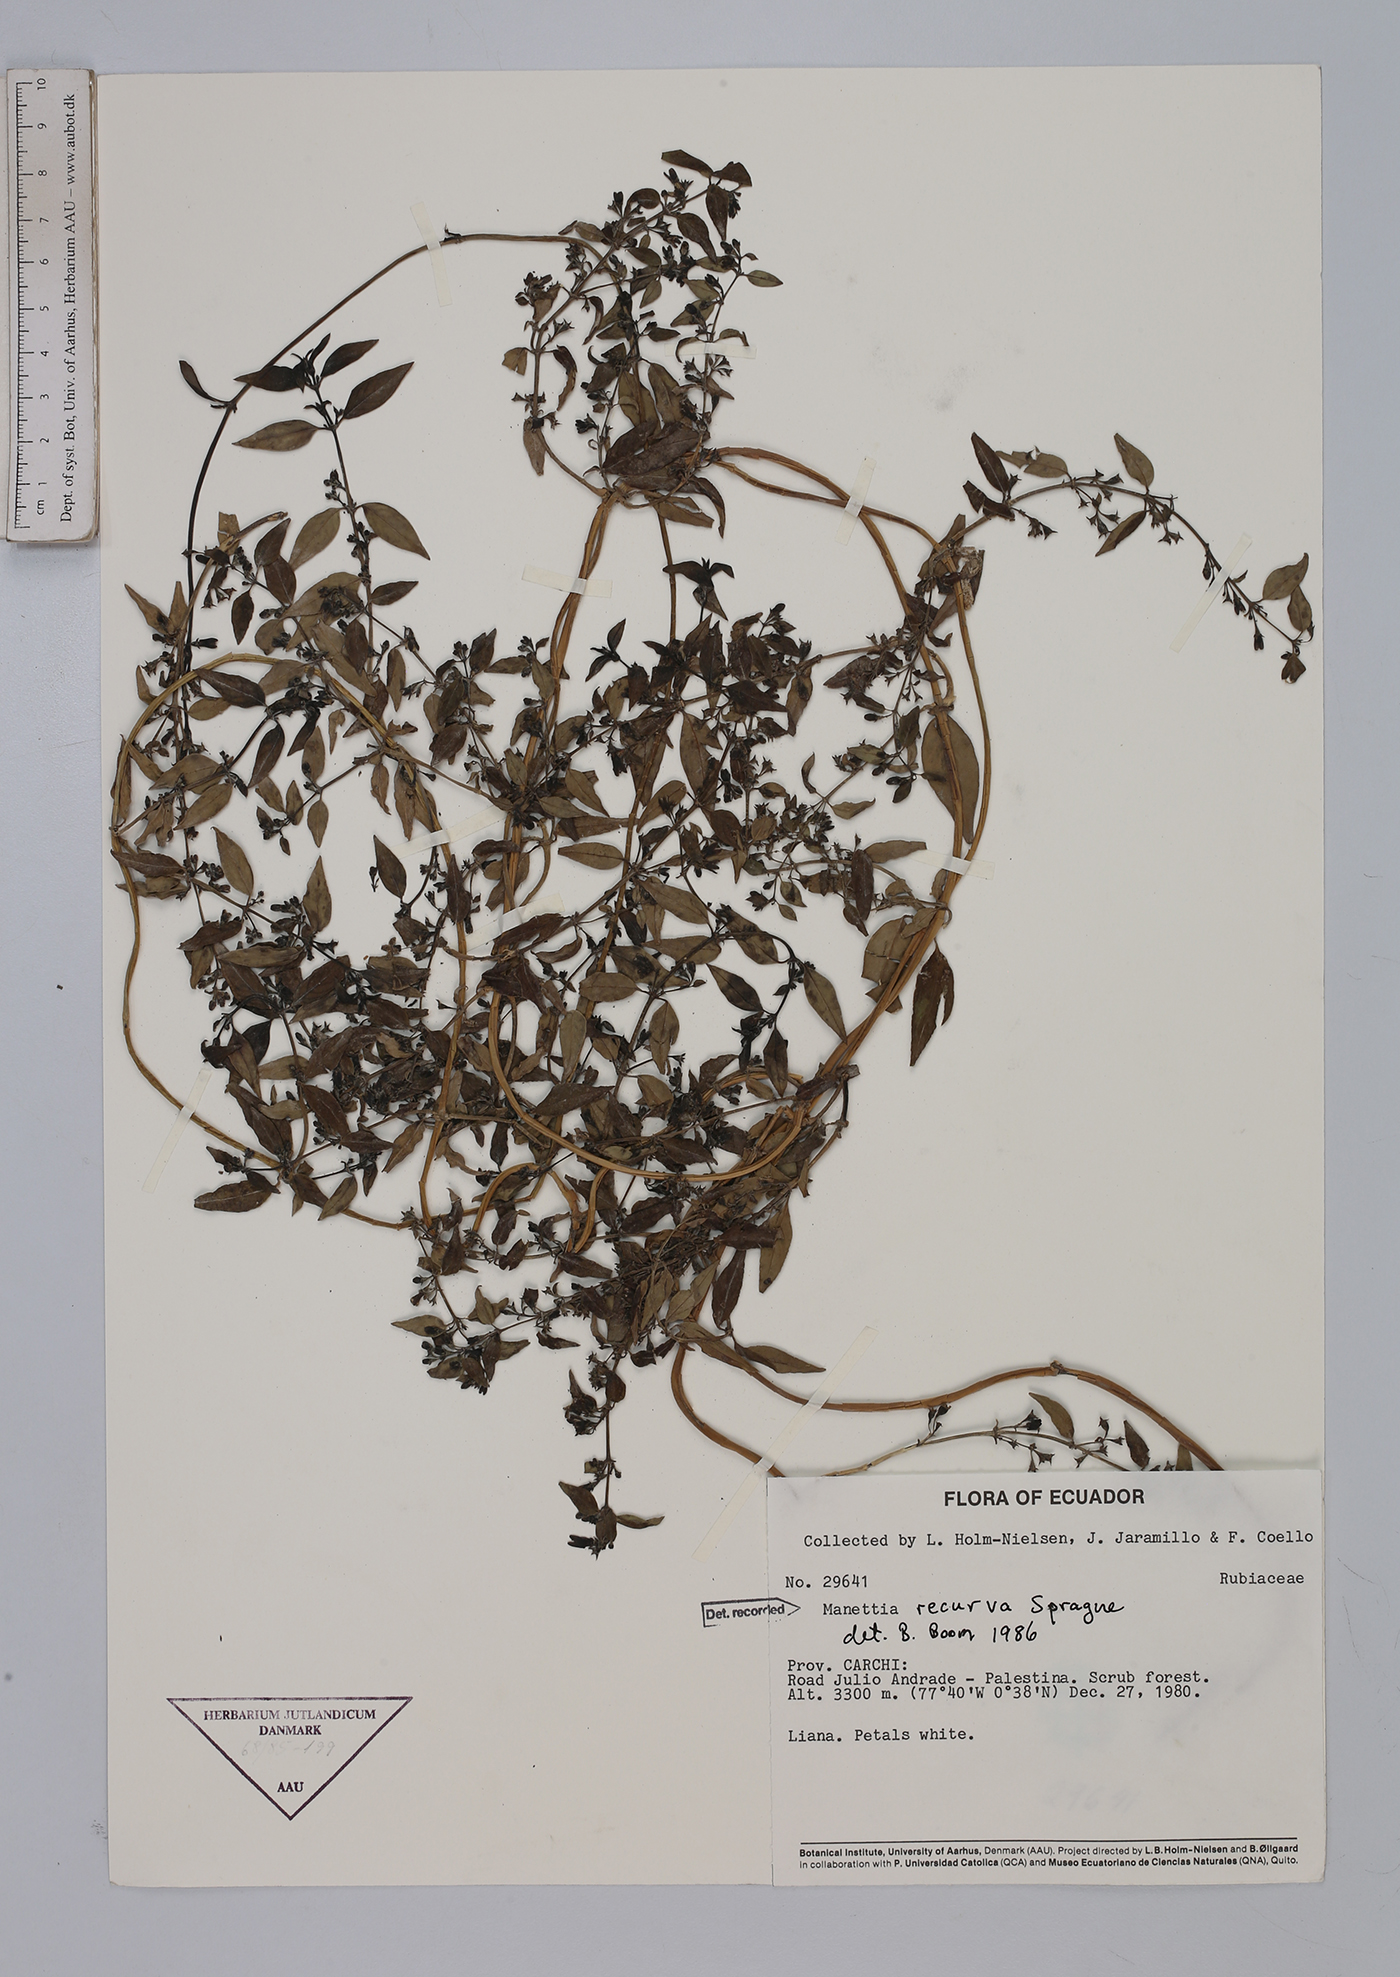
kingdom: Plantae
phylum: Tracheophyta
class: Magnoliopsida
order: Gentianales
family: Rubiaceae
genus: Manettia
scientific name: Manettia recurva
